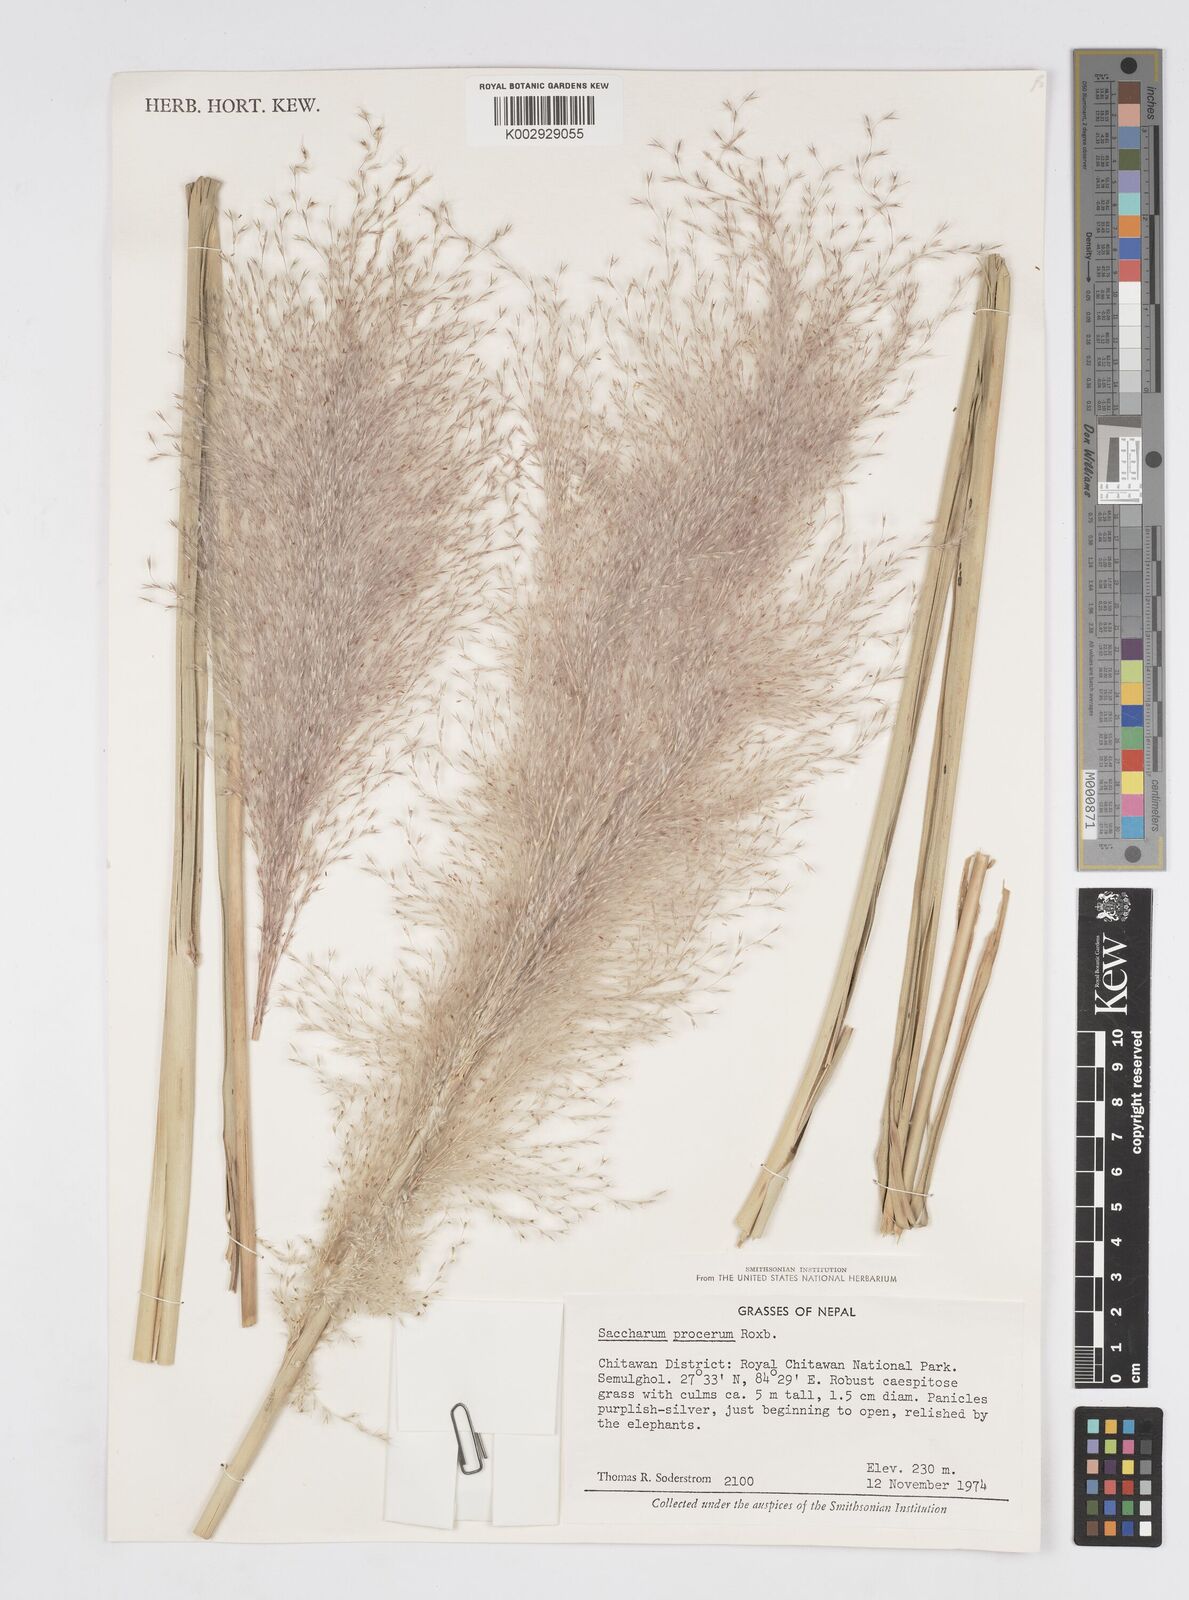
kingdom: Plantae
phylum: Tracheophyta
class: Liliopsida
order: Poales
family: Poaceae
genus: Tripidium
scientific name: Tripidium procerum
